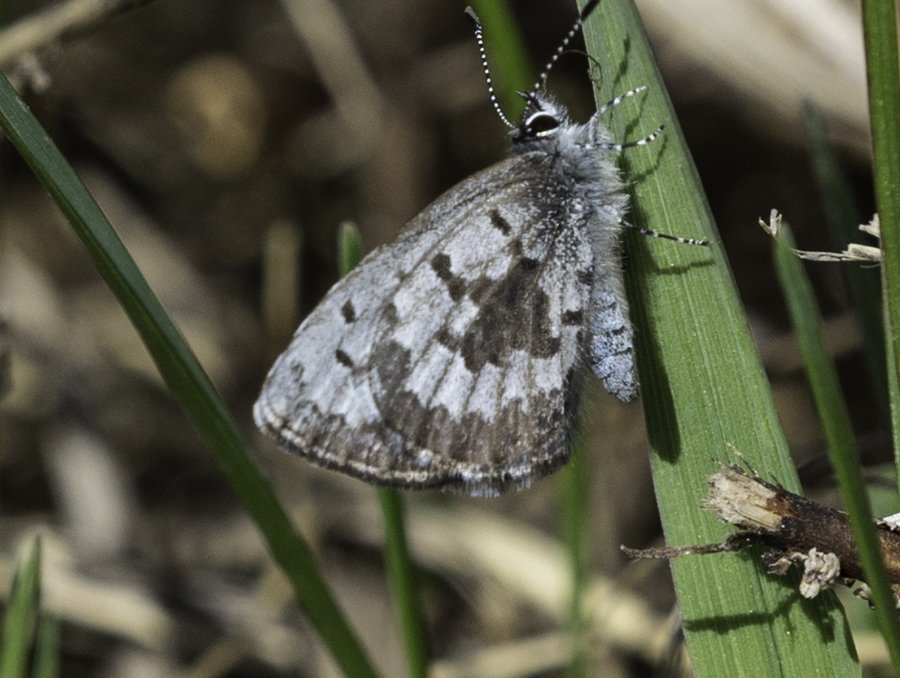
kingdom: Animalia
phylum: Arthropoda
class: Insecta
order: Lepidoptera
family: Lycaenidae
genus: Celastrina
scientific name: Celastrina lucia
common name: Northern Spring Azure
